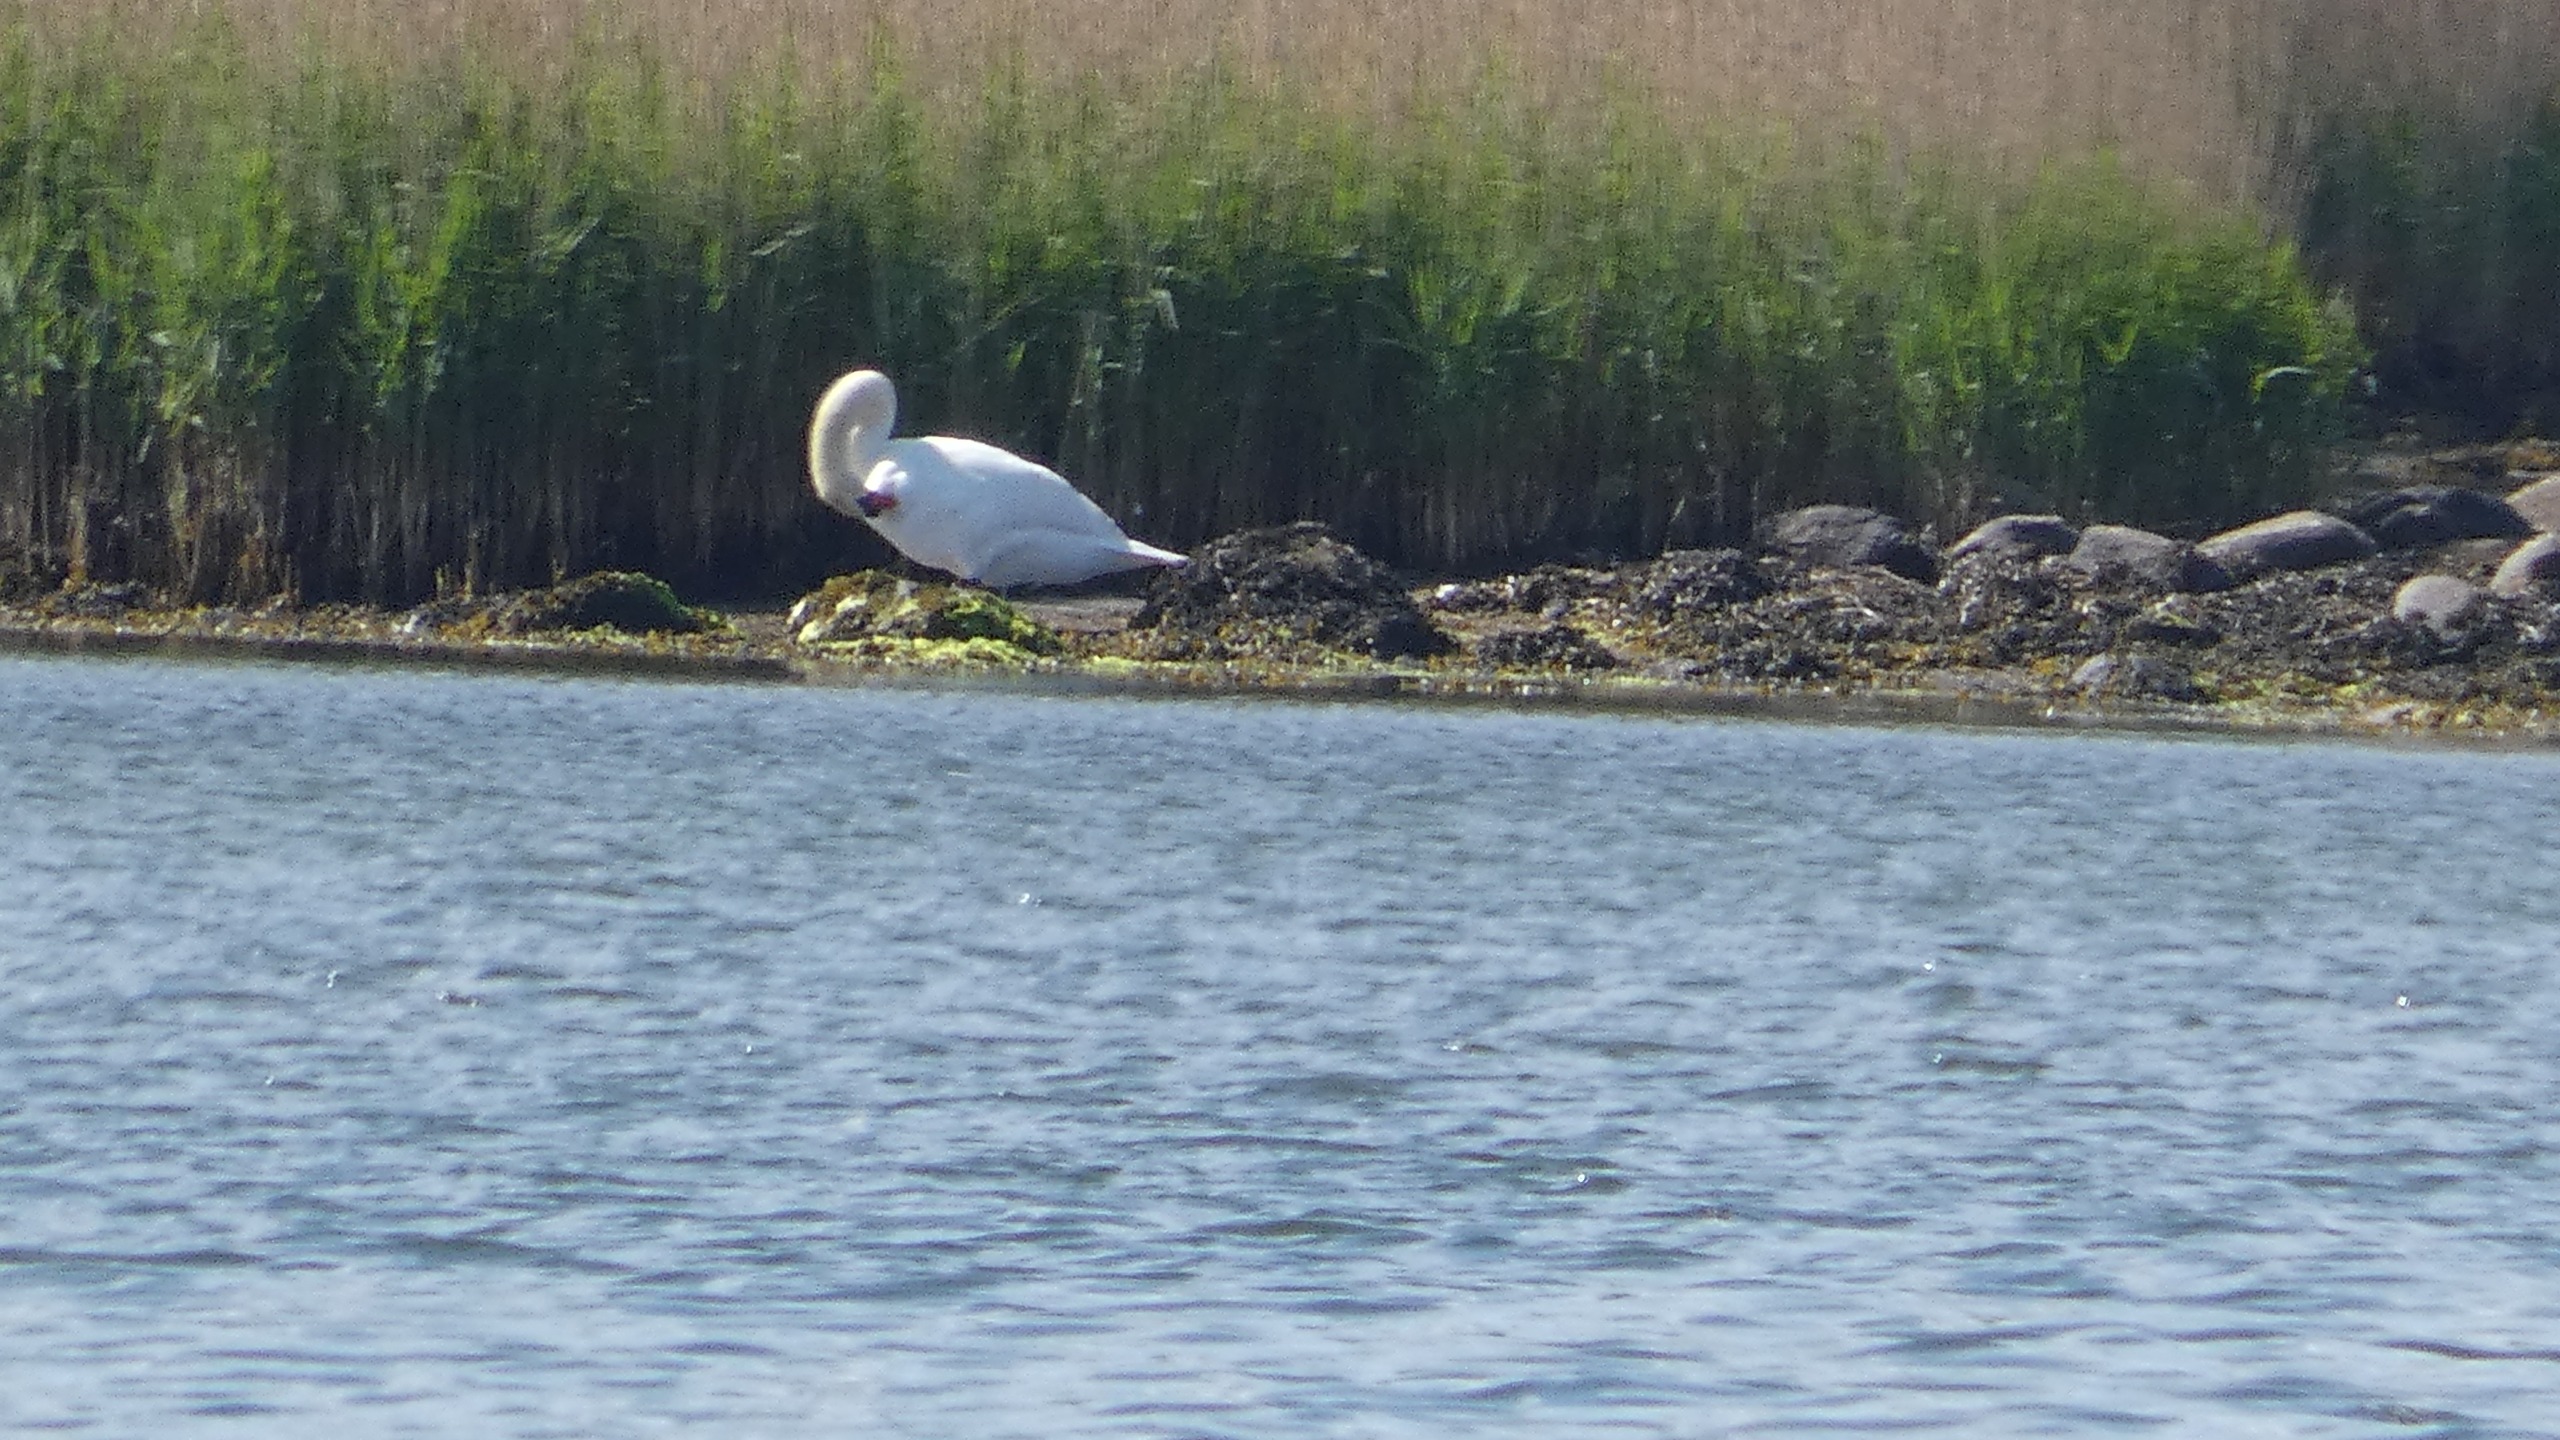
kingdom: Animalia
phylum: Chordata
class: Aves
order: Anseriformes
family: Anatidae
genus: Cygnus
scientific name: Cygnus olor
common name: Knopsvane
